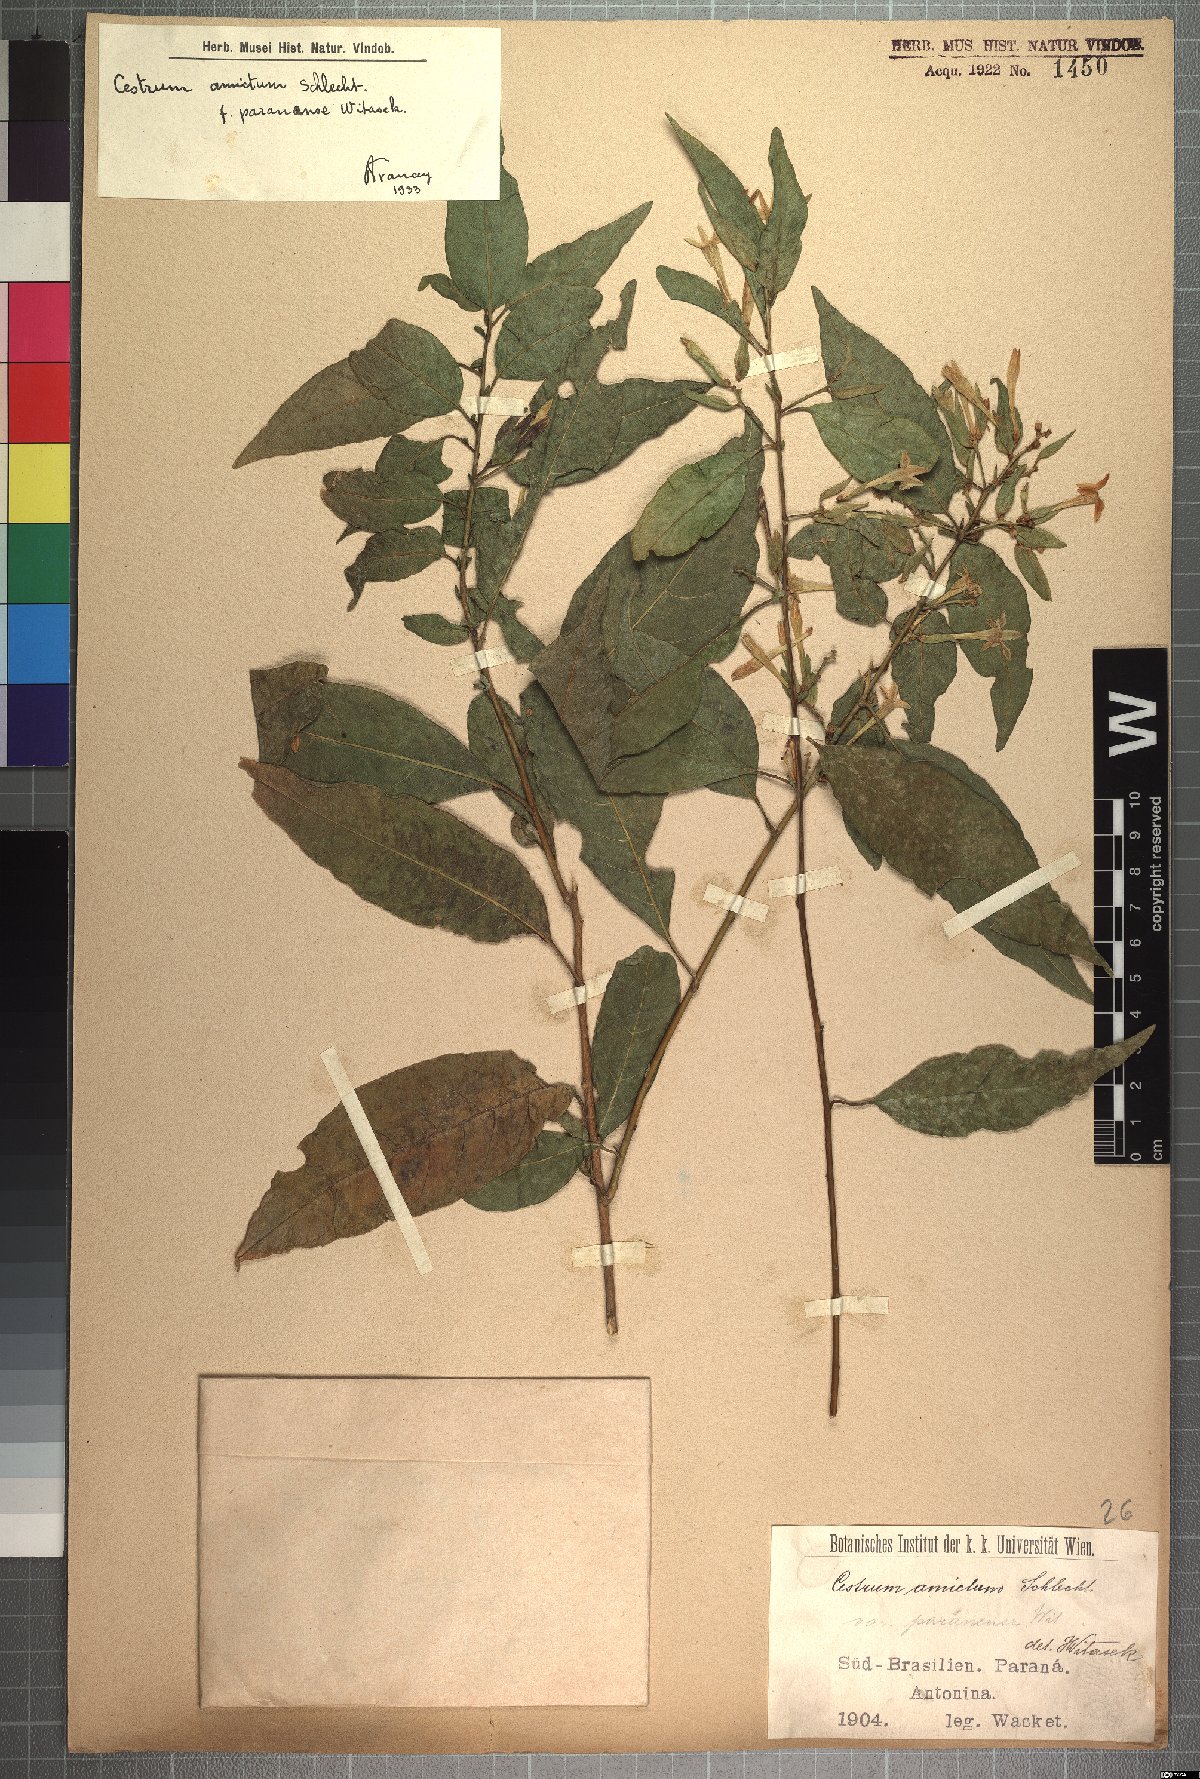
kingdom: Plantae
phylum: Tracheophyta
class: Magnoliopsida
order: Solanales
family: Solanaceae
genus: Cestrum
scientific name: Cestrum bracteatum
